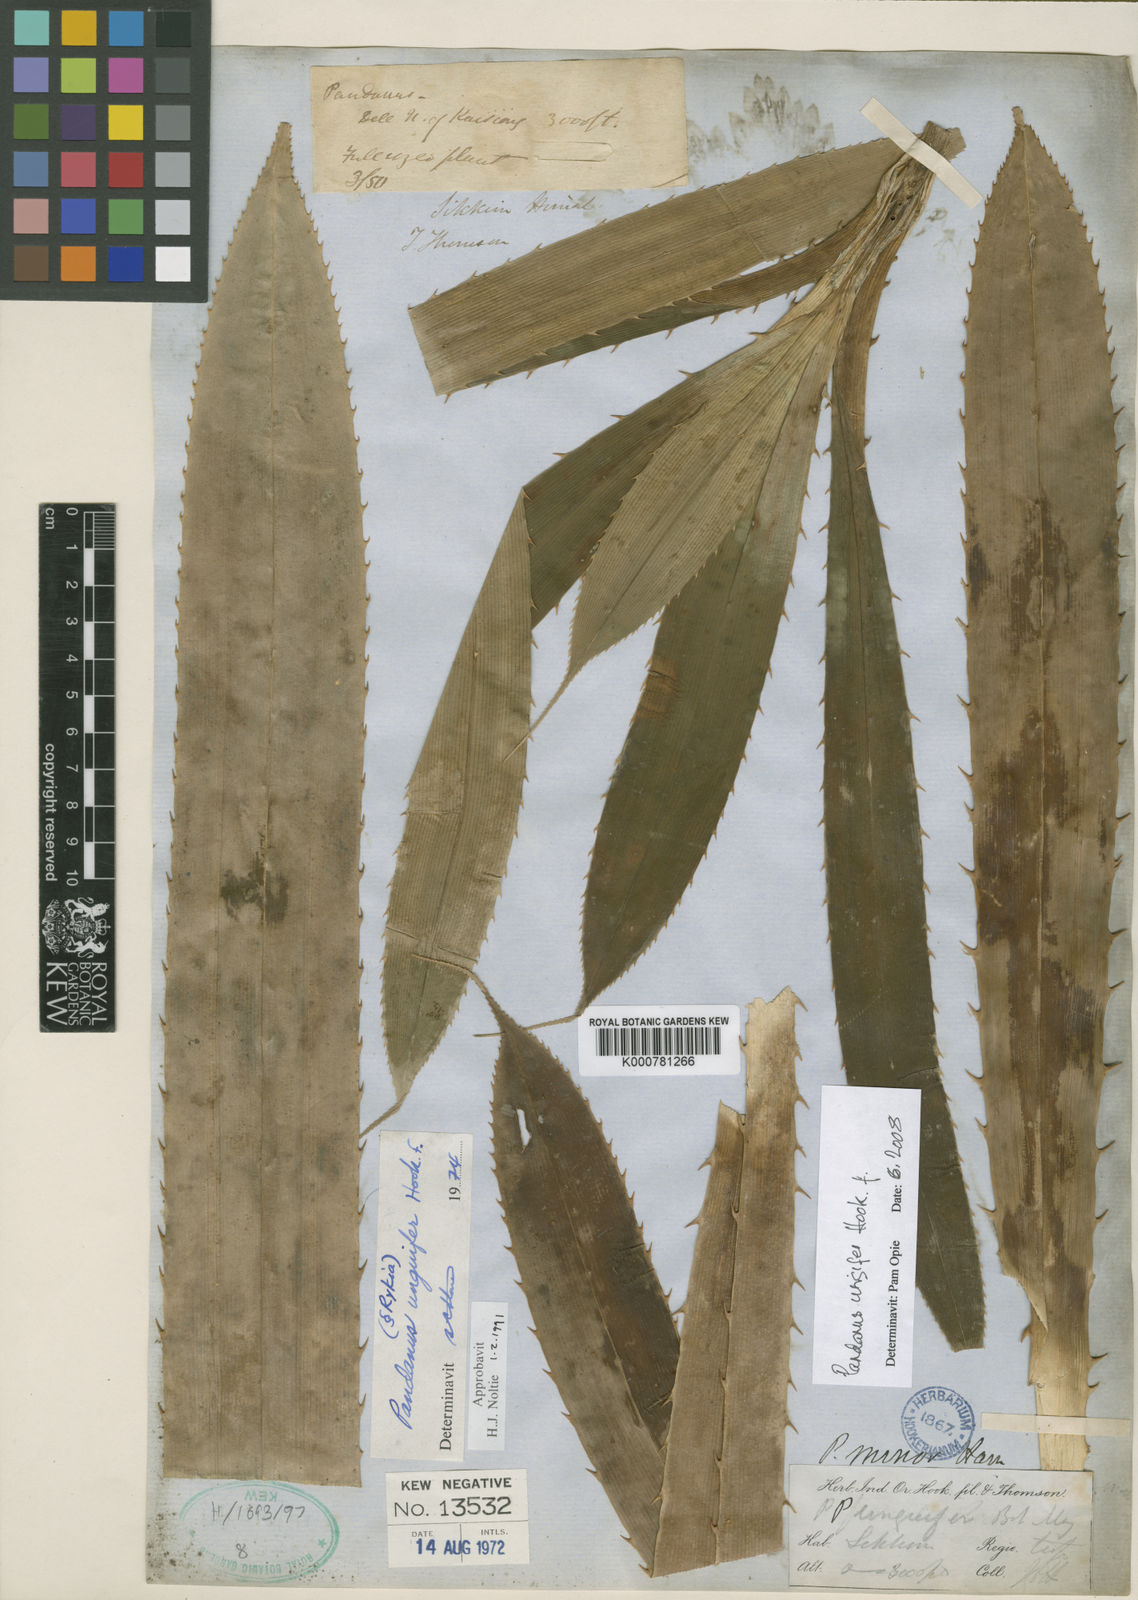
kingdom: Plantae
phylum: Tracheophyta
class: Liliopsida
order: Pandanales
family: Pandanaceae
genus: Pandanus
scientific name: Pandanus unguifer
